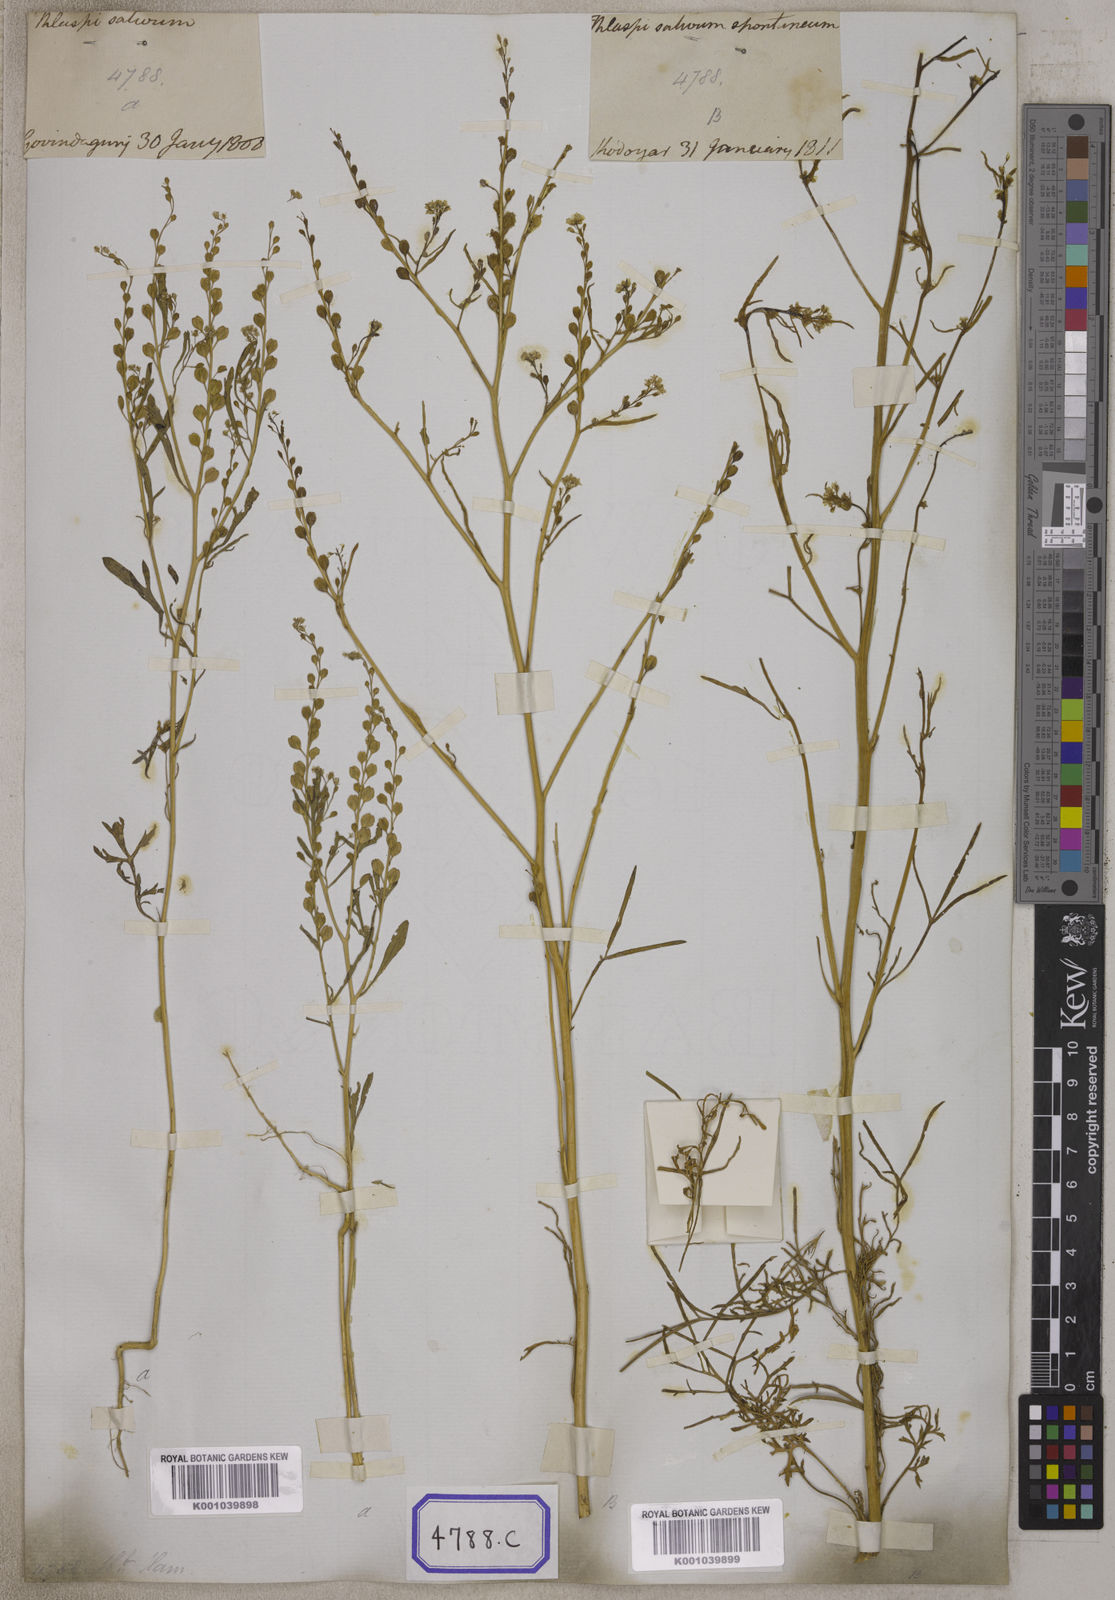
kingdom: Plantae
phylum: Tracheophyta
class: Magnoliopsida
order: Brassicales
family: Brassicaceae
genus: Lepidium
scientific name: Lepidium sativum
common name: Garden cress
